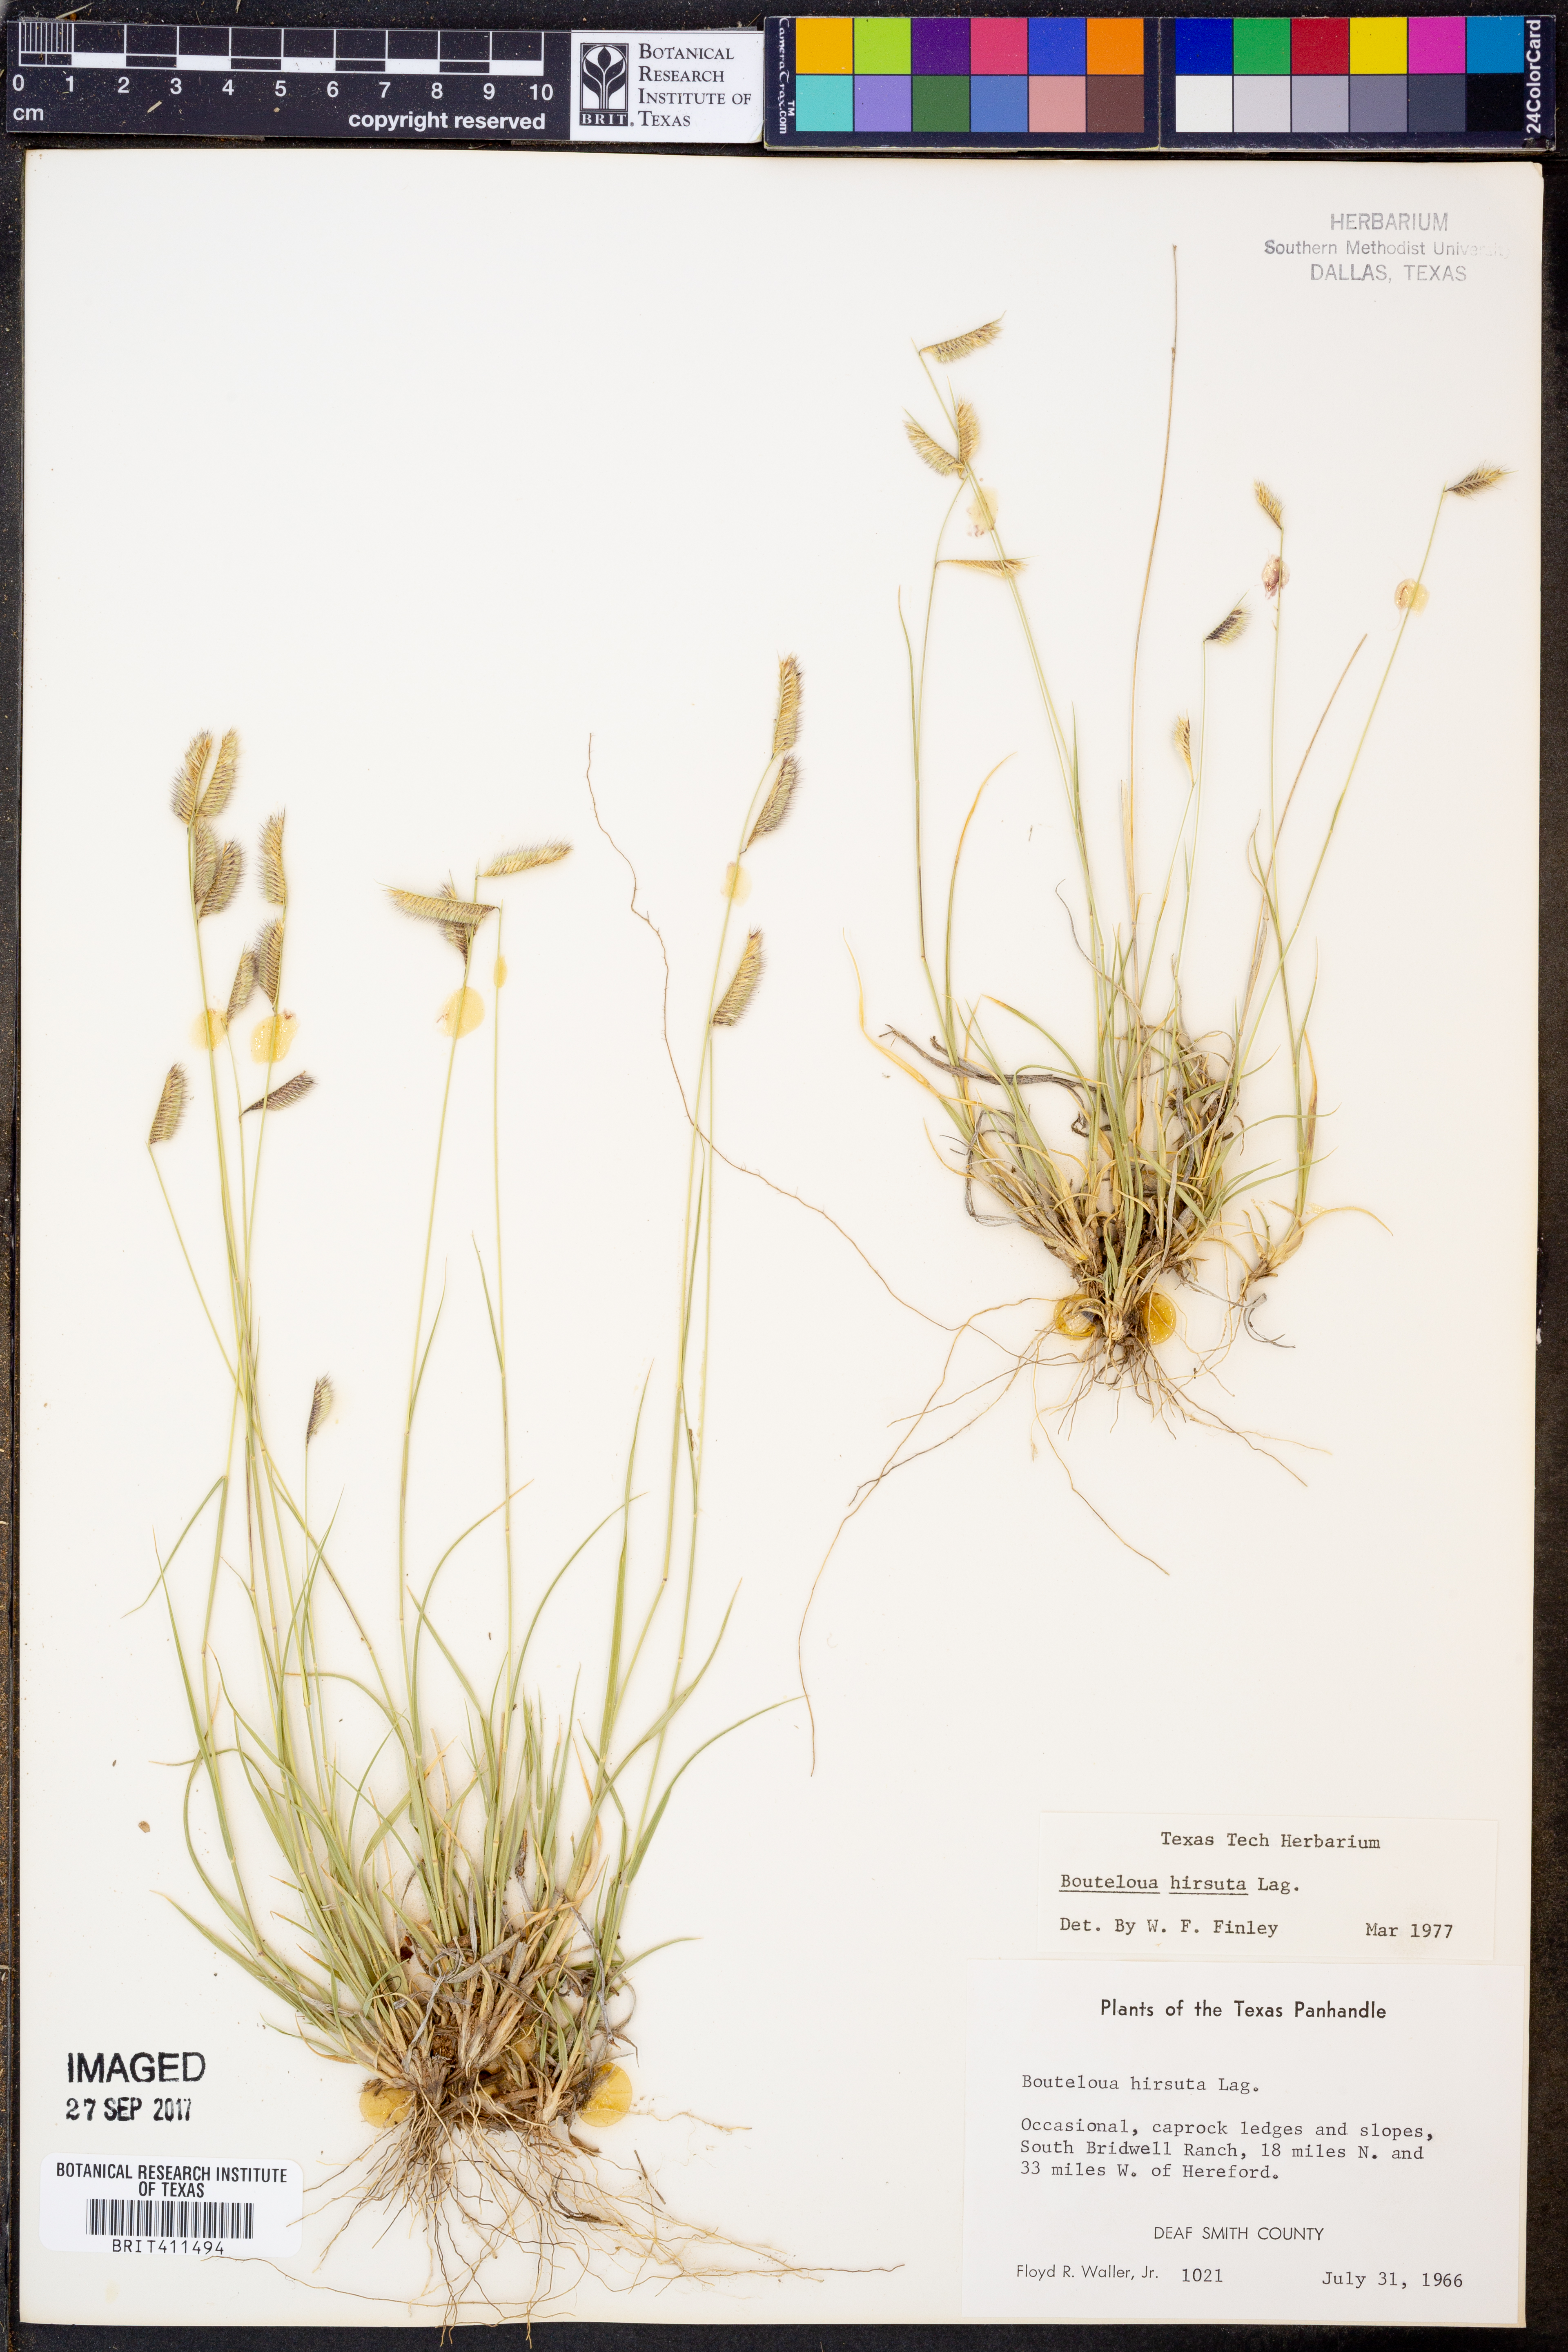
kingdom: Plantae
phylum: Tracheophyta
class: Liliopsida
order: Poales
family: Poaceae
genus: Bouteloua
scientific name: Bouteloua hirsuta
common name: Hairy grama
